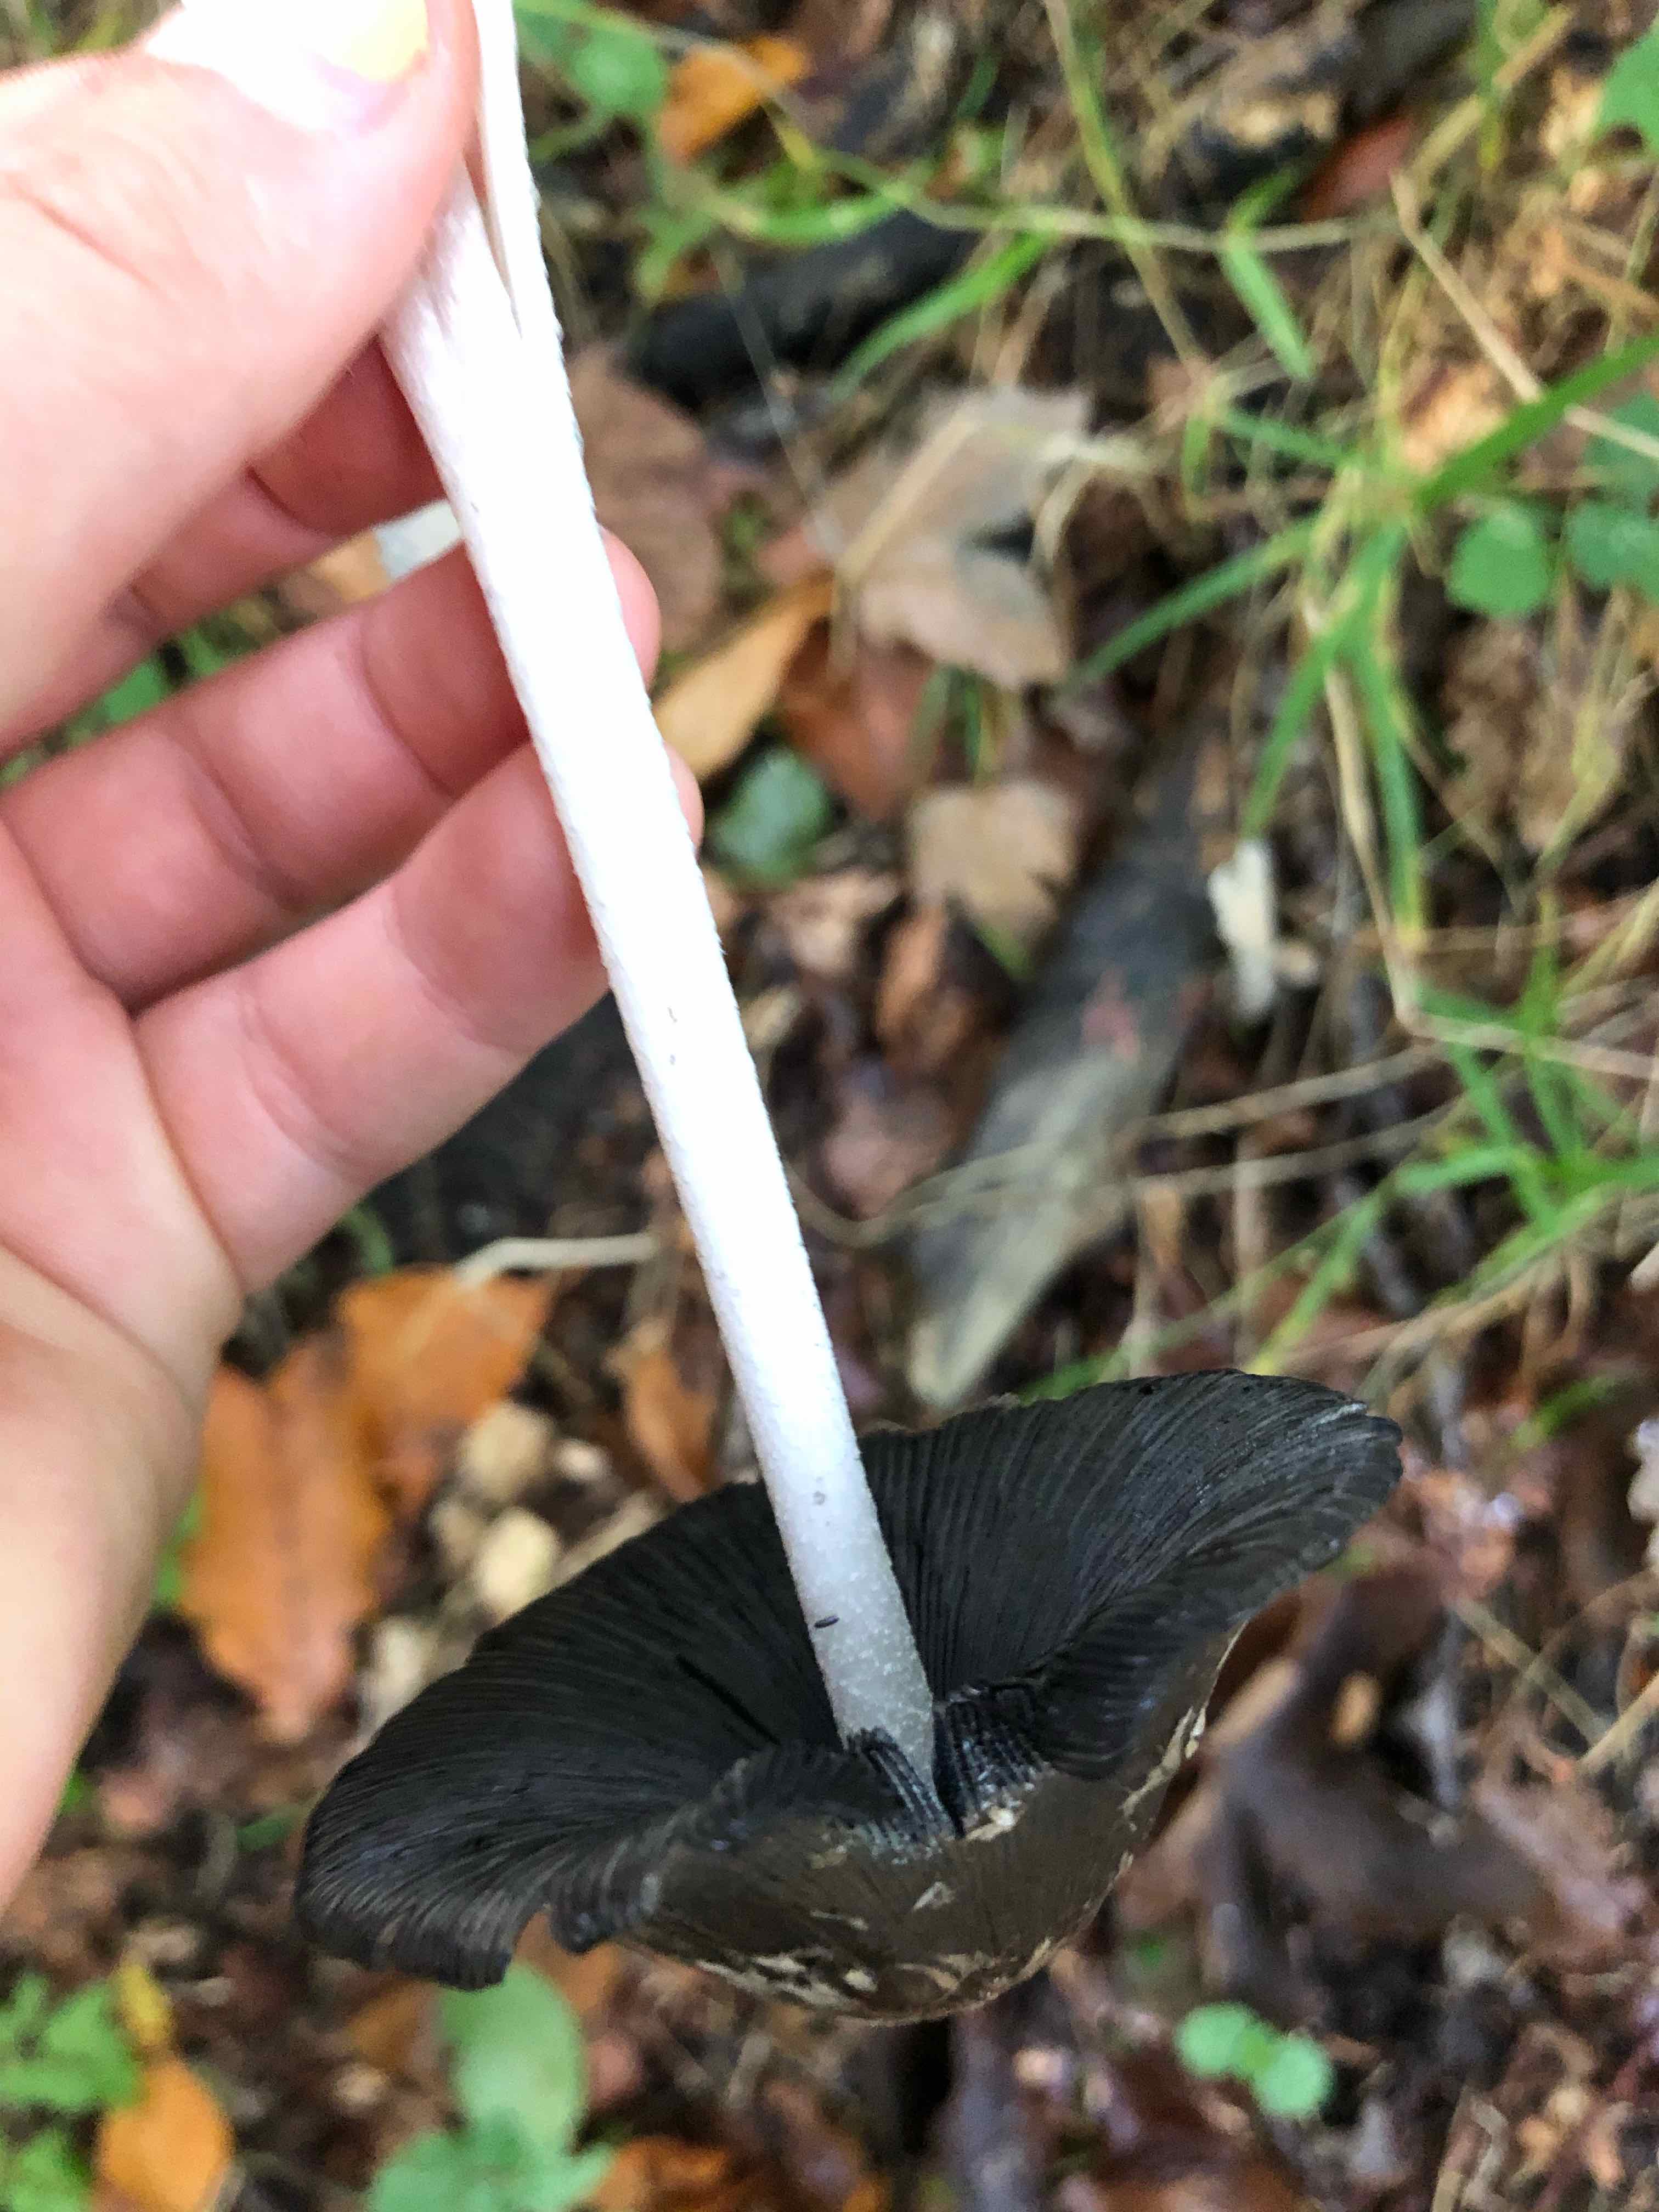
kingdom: Fungi
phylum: Basidiomycota
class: Agaricomycetes
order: Agaricales
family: Psathyrellaceae
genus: Coprinopsis
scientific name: Coprinopsis picacea
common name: skade-blækhat
